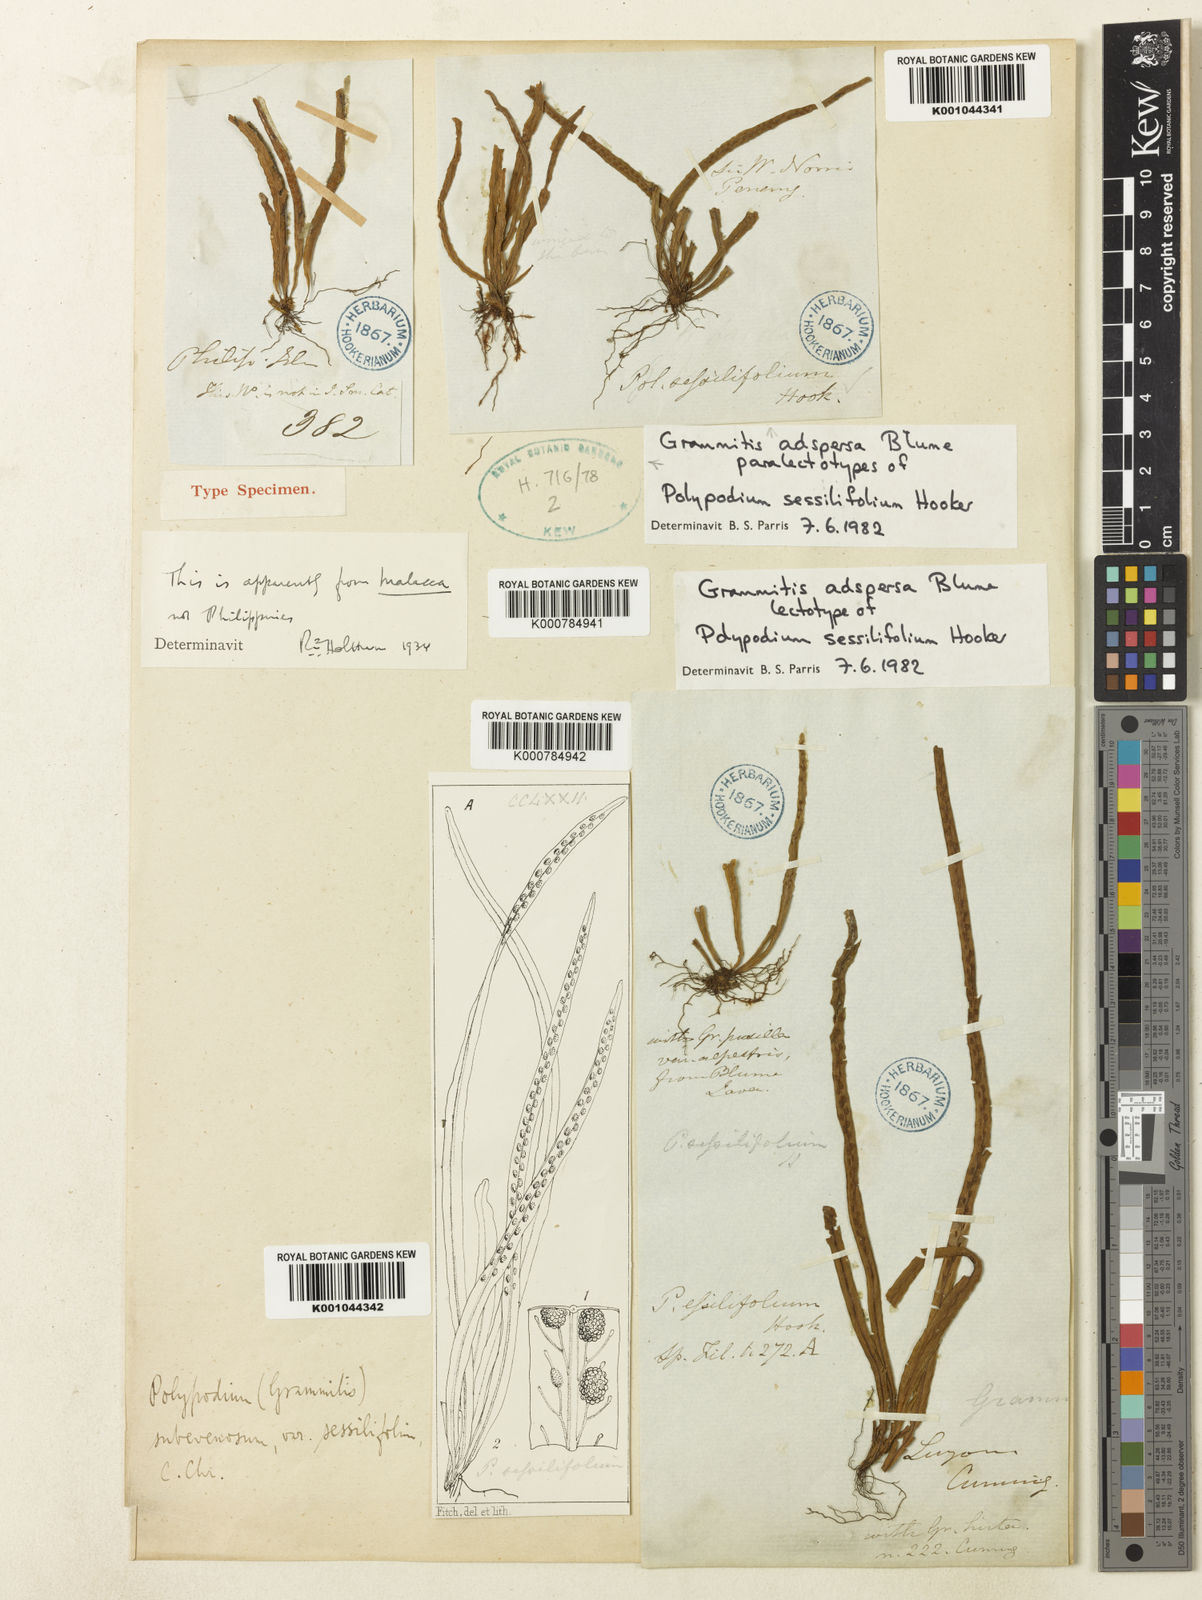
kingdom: Plantae
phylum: Tracheophyta
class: Polypodiopsida
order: Polypodiales
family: Polypodiaceae
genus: Oreogrammitis
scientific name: Oreogrammitis adspersa
